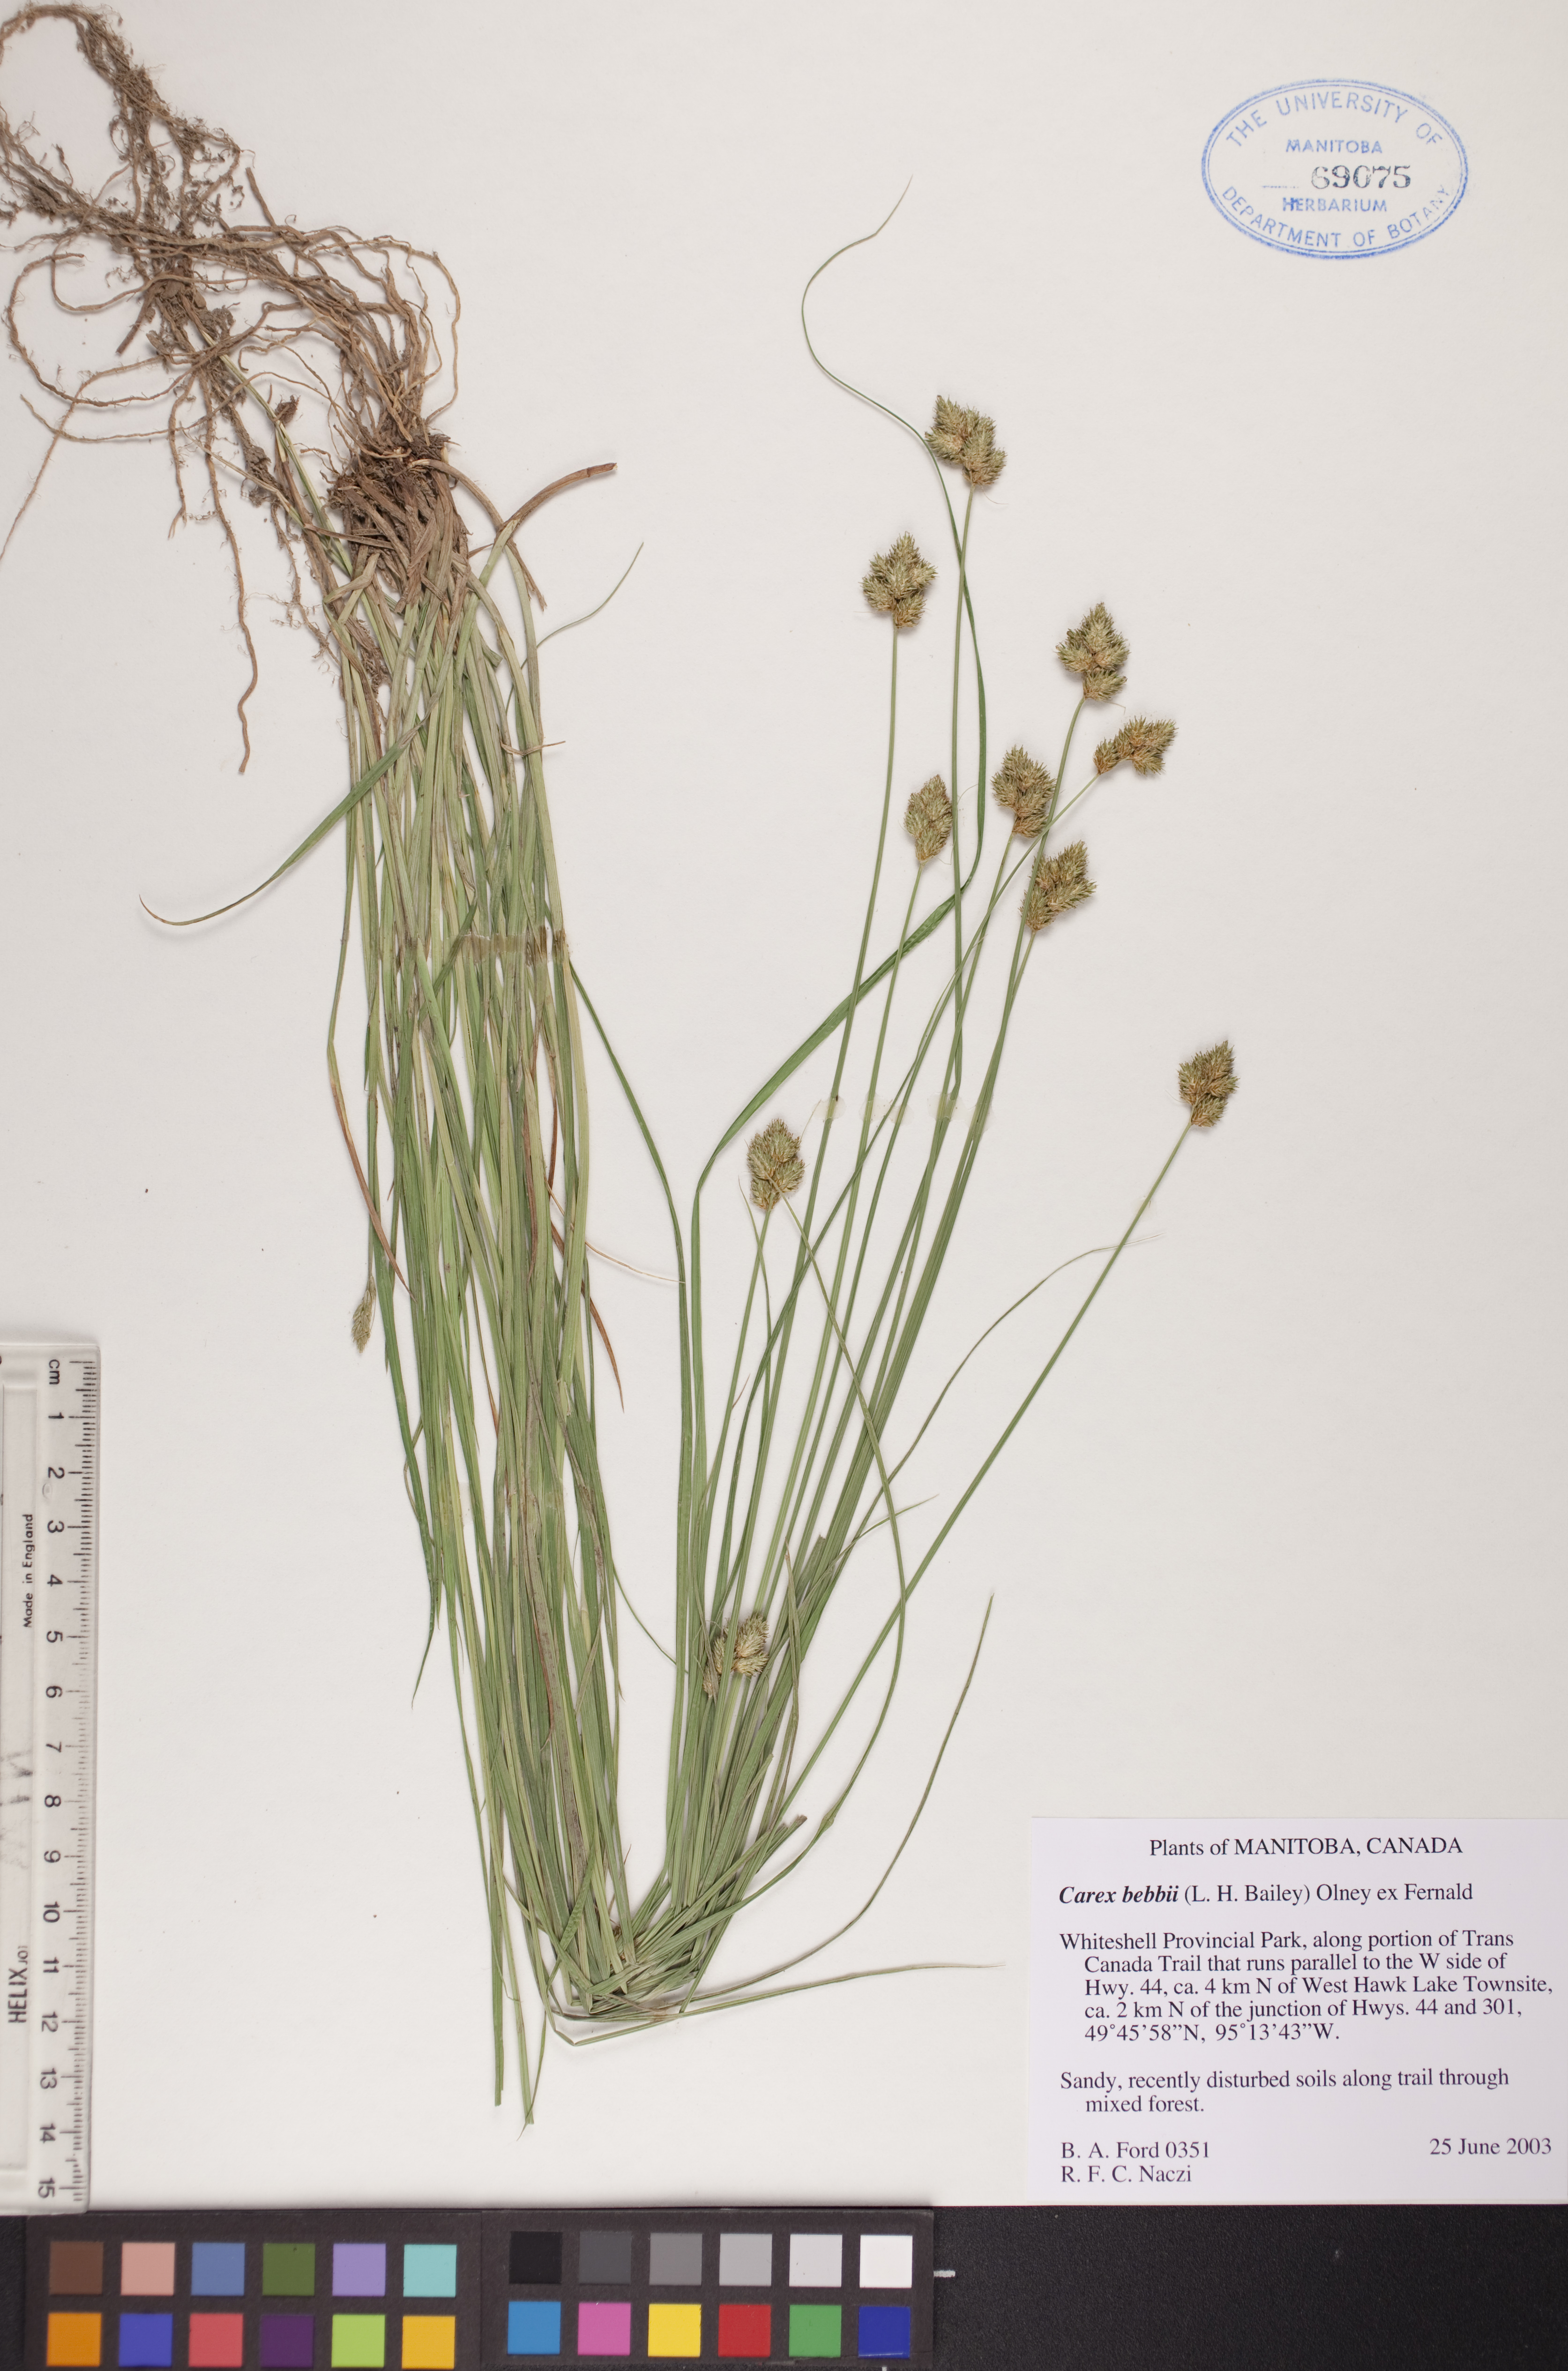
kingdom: Plantae
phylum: Tracheophyta
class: Liliopsida
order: Poales
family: Cyperaceae
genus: Carex
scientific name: Carex bebbii
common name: Bebb's sedge
